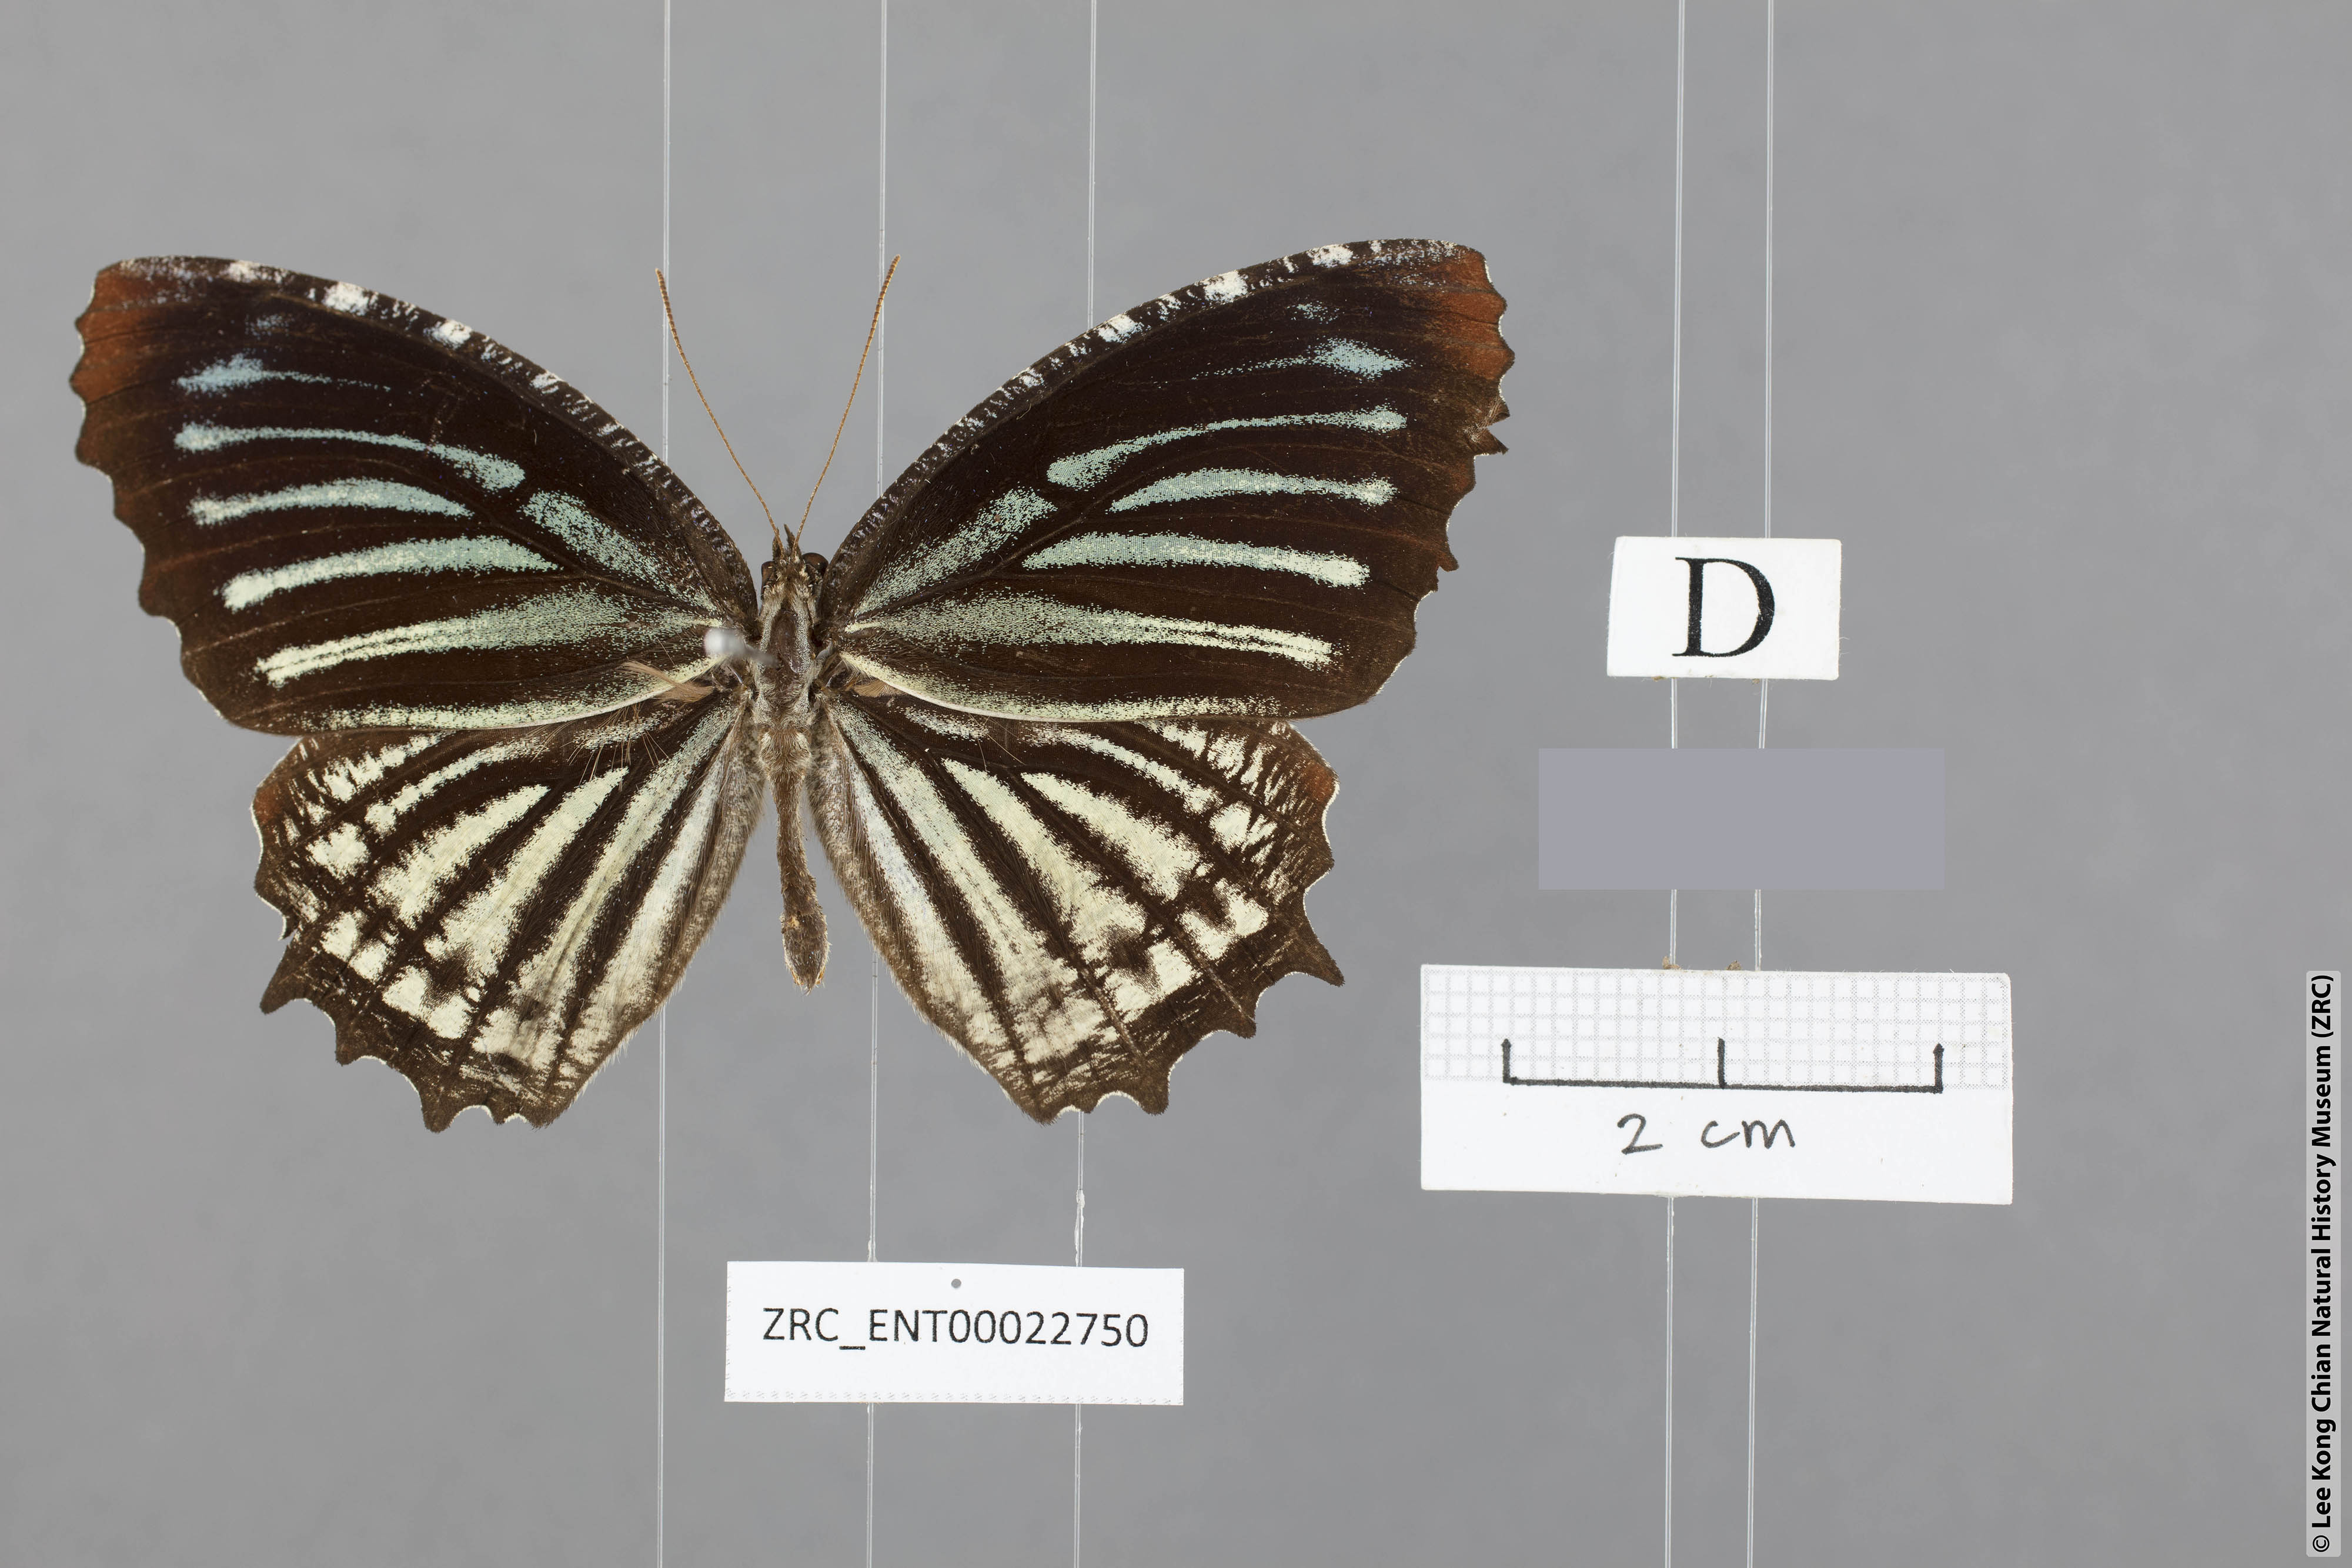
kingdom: Animalia
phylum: Arthropoda
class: Insecta
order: Lepidoptera
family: Nymphalidae
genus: Elymnias
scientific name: Elymnias nesaea
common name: Tiger palmfly
